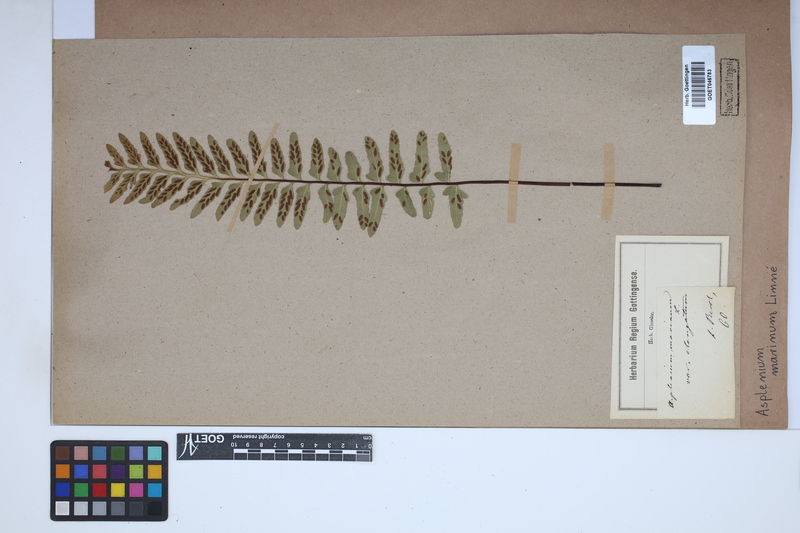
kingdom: Plantae
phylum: Tracheophyta
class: Polypodiopsida
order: Polypodiales
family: Aspleniaceae
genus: Asplenium
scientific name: Asplenium marinum
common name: Sea spleenwort
